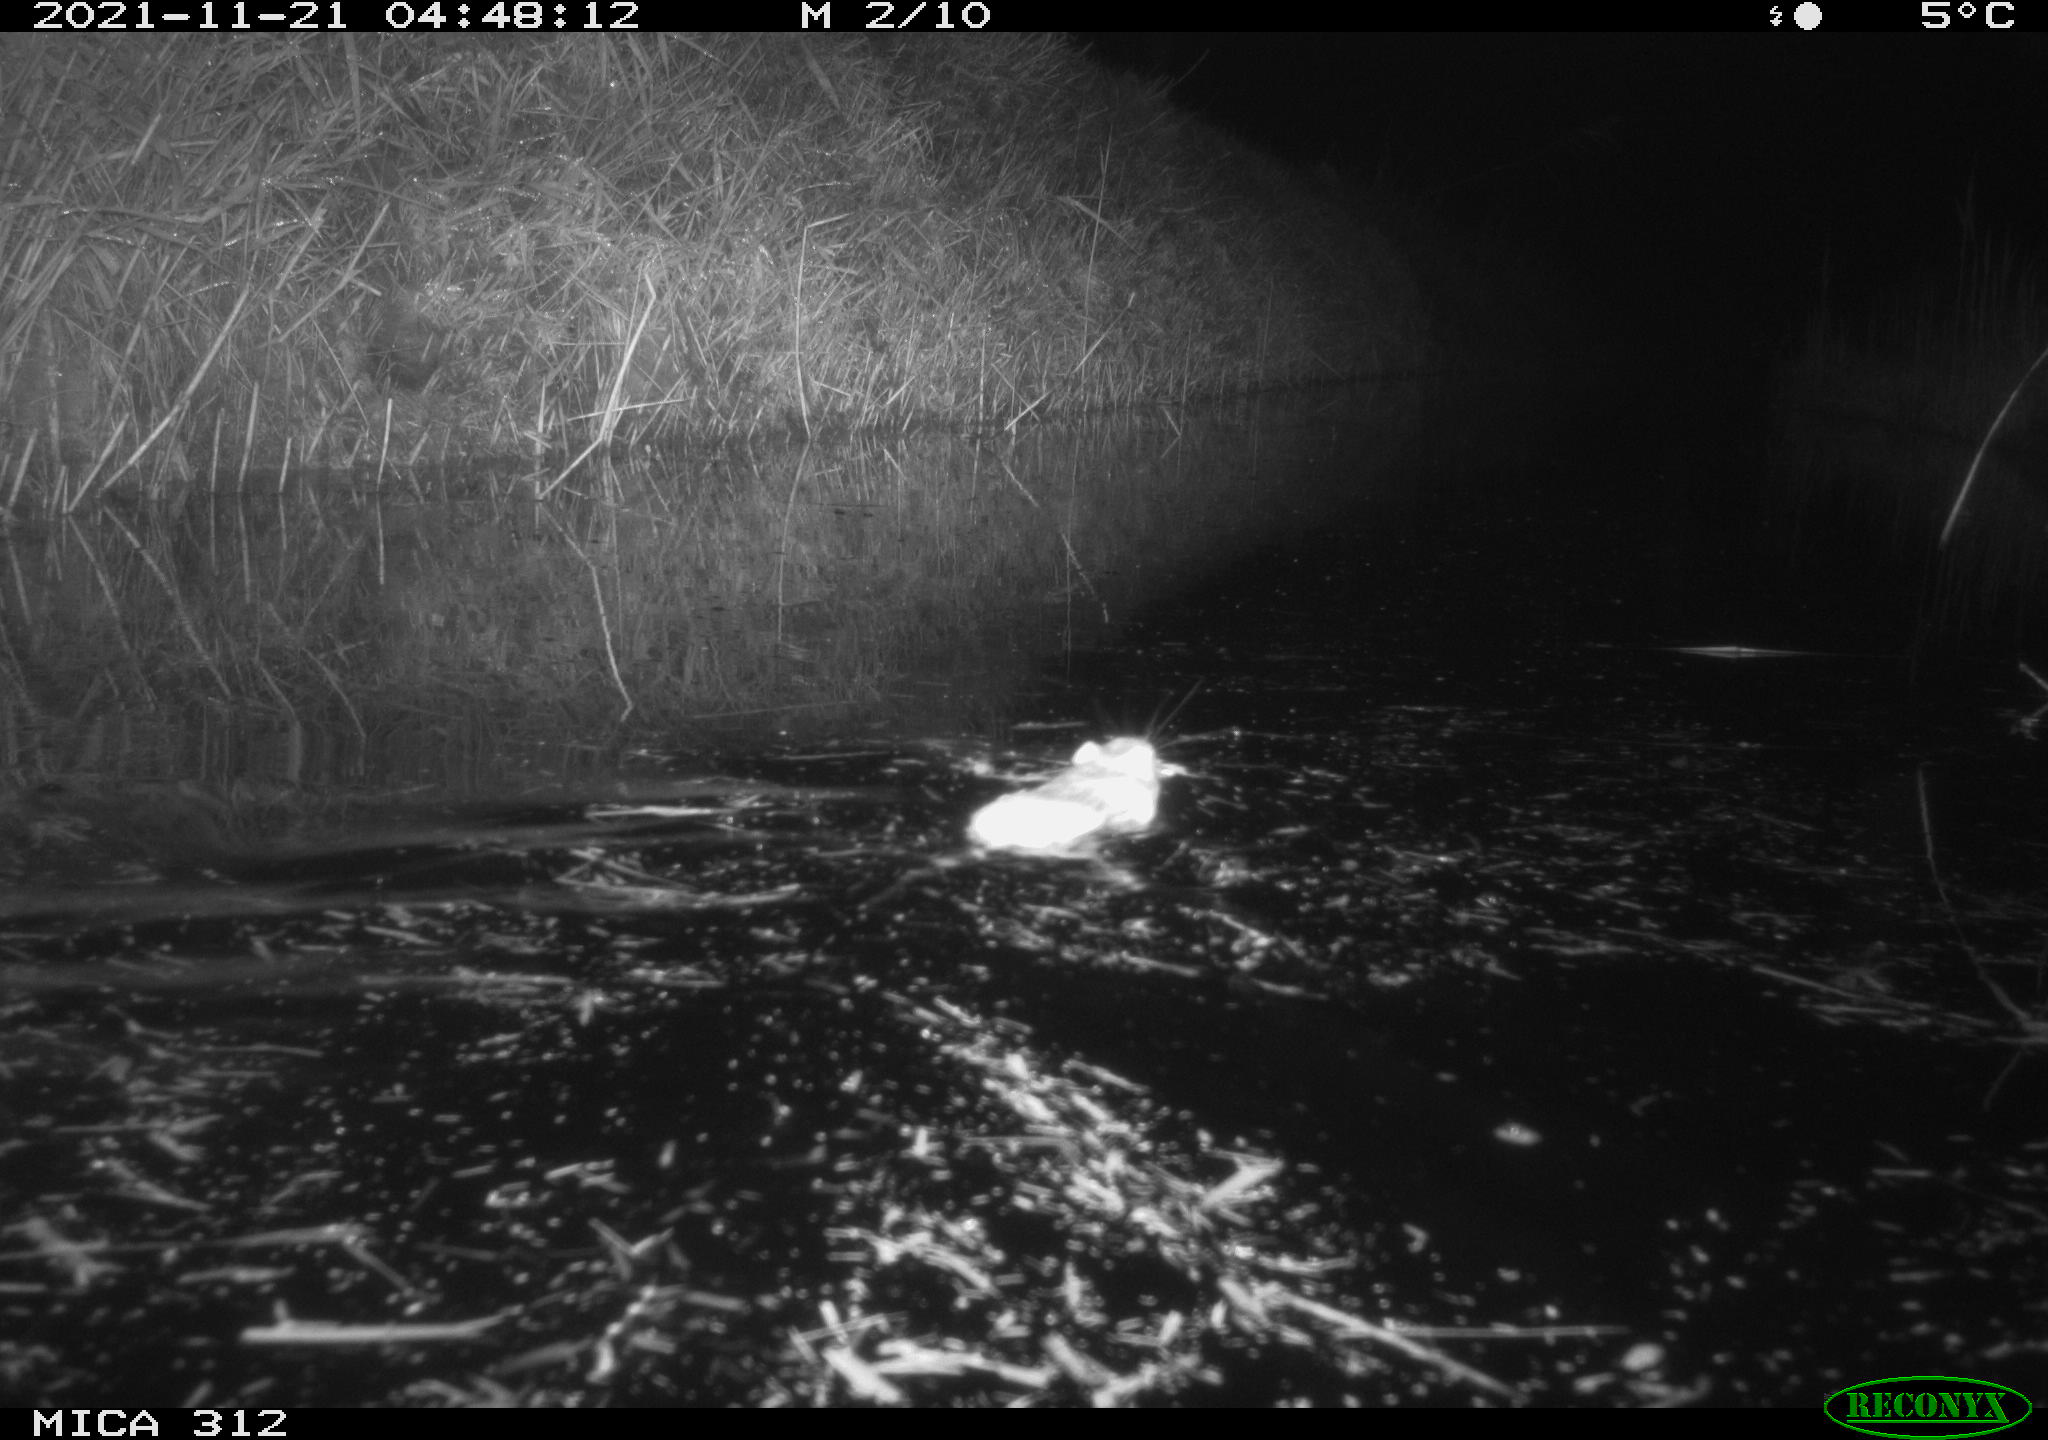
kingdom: Animalia
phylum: Chordata
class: Mammalia
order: Rodentia
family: Muridae
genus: Rattus
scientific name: Rattus norvegicus
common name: Brown rat
